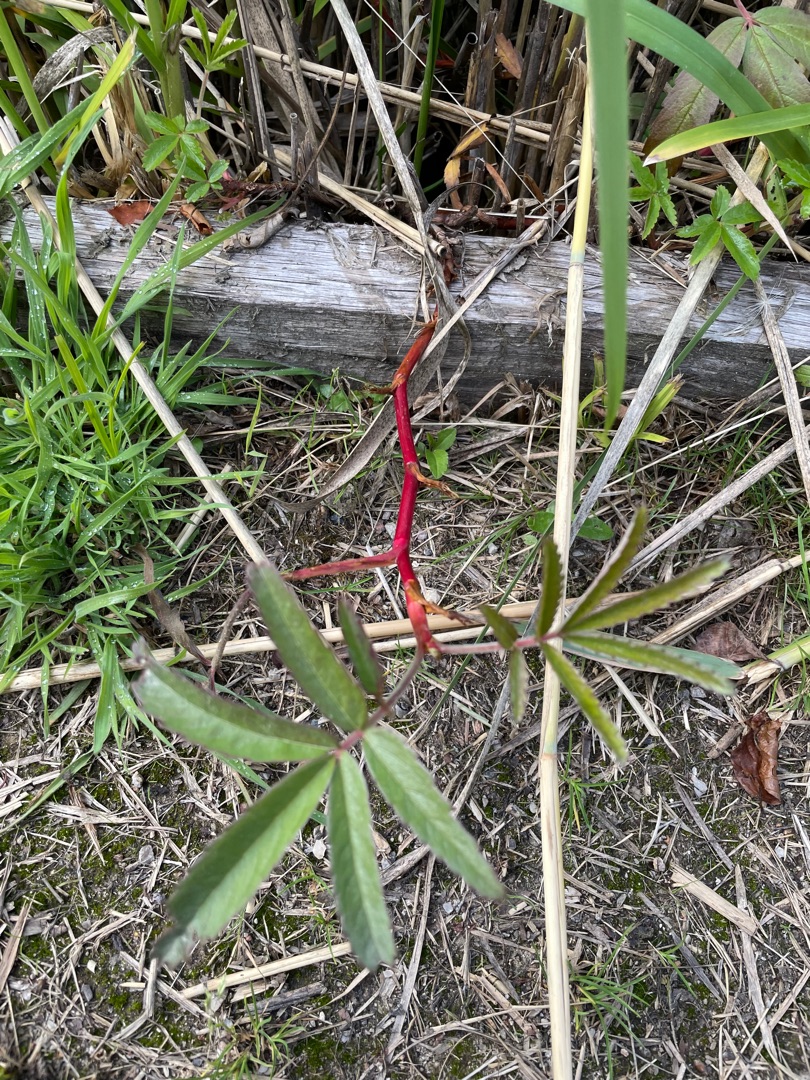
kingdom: Plantae
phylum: Tracheophyta
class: Magnoliopsida
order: Rosales
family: Rosaceae
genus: Comarum
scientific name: Comarum palustre
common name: Kragefod
